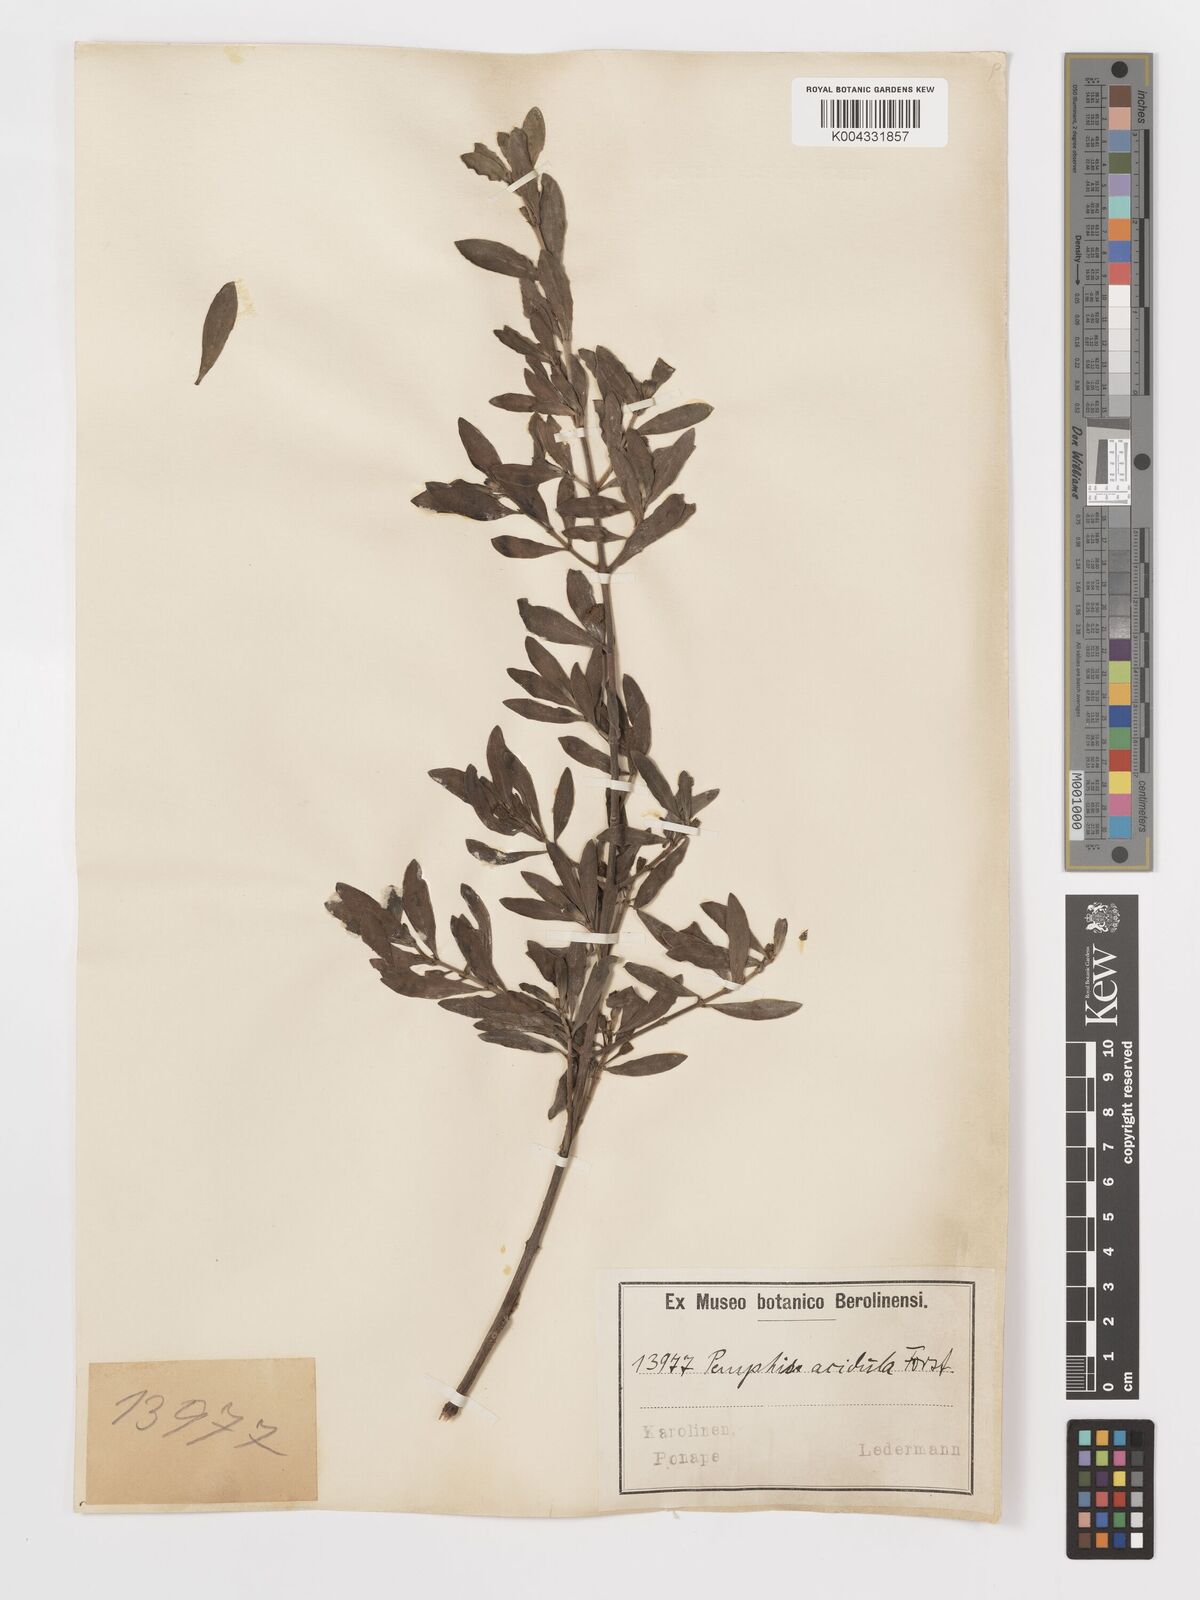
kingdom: Plantae
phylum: Tracheophyta
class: Magnoliopsida
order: Myrtales
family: Lythraceae
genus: Pemphis
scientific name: Pemphis acidula
